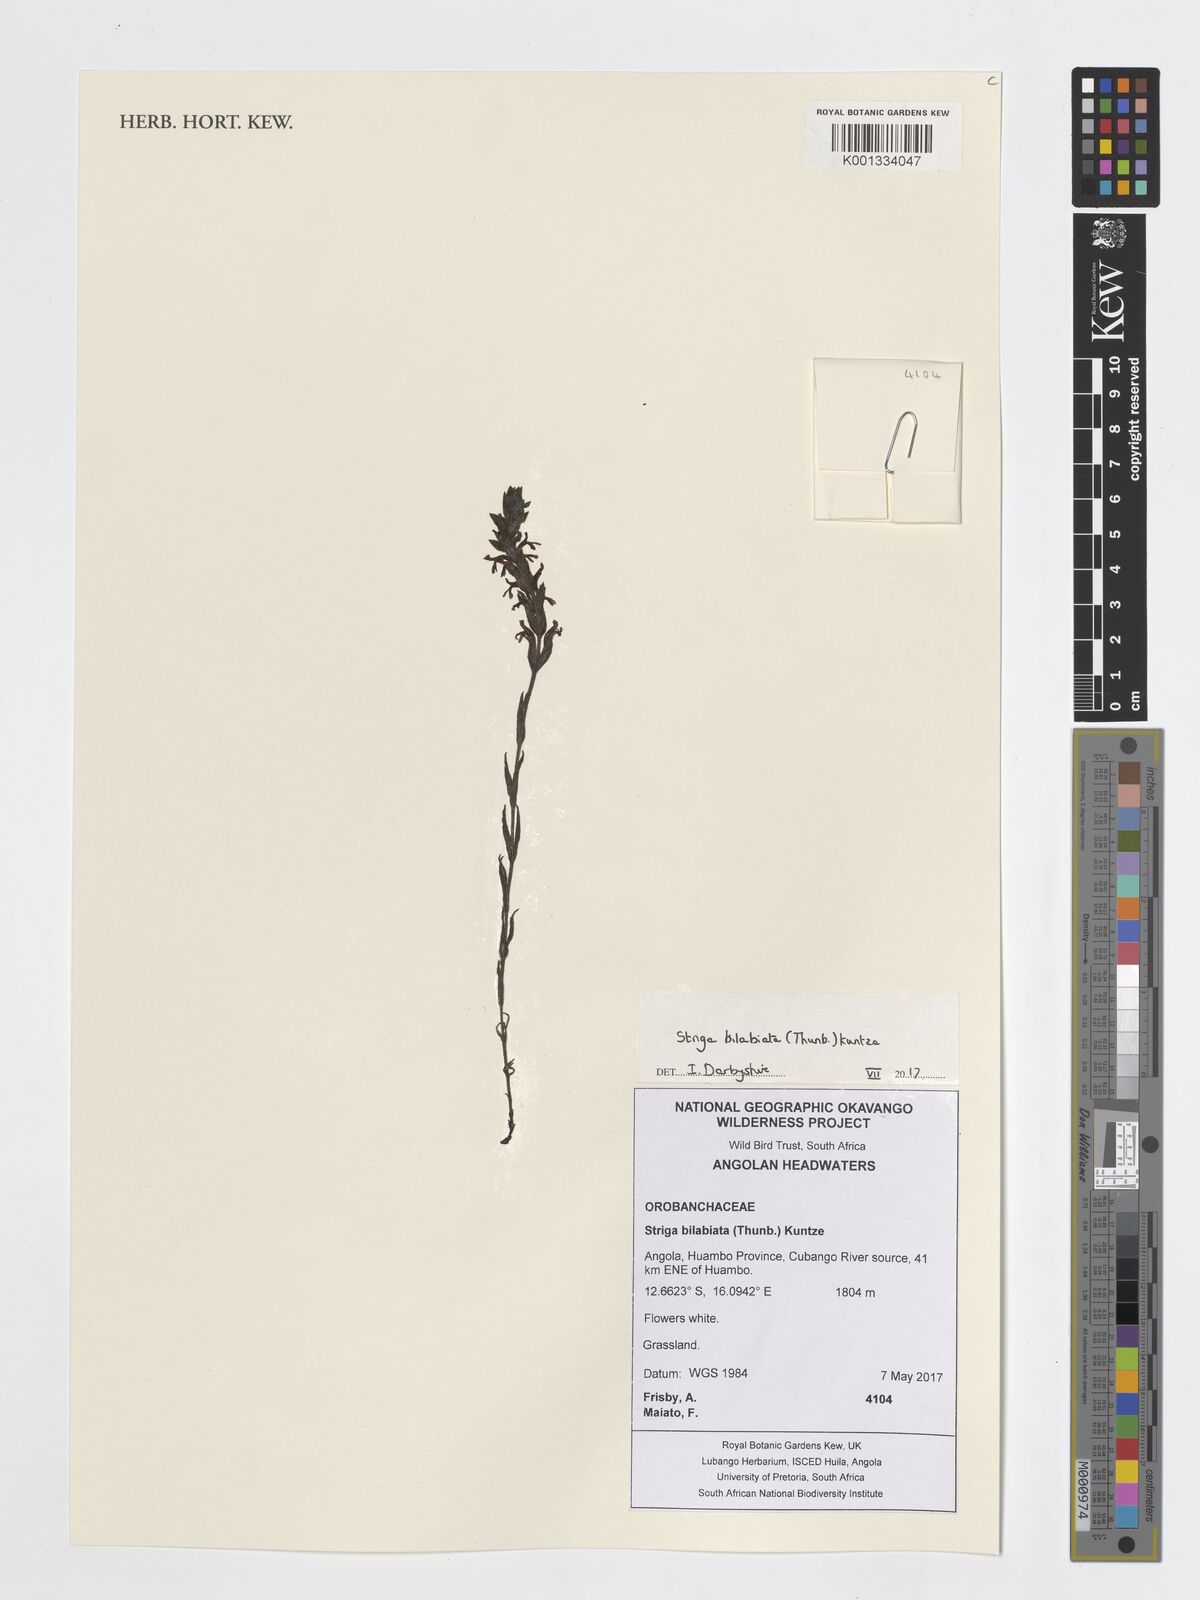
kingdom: Plantae
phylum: Tracheophyta
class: Magnoliopsida
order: Lamiales
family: Orobanchaceae
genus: Striga
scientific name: Striga bilabiata
